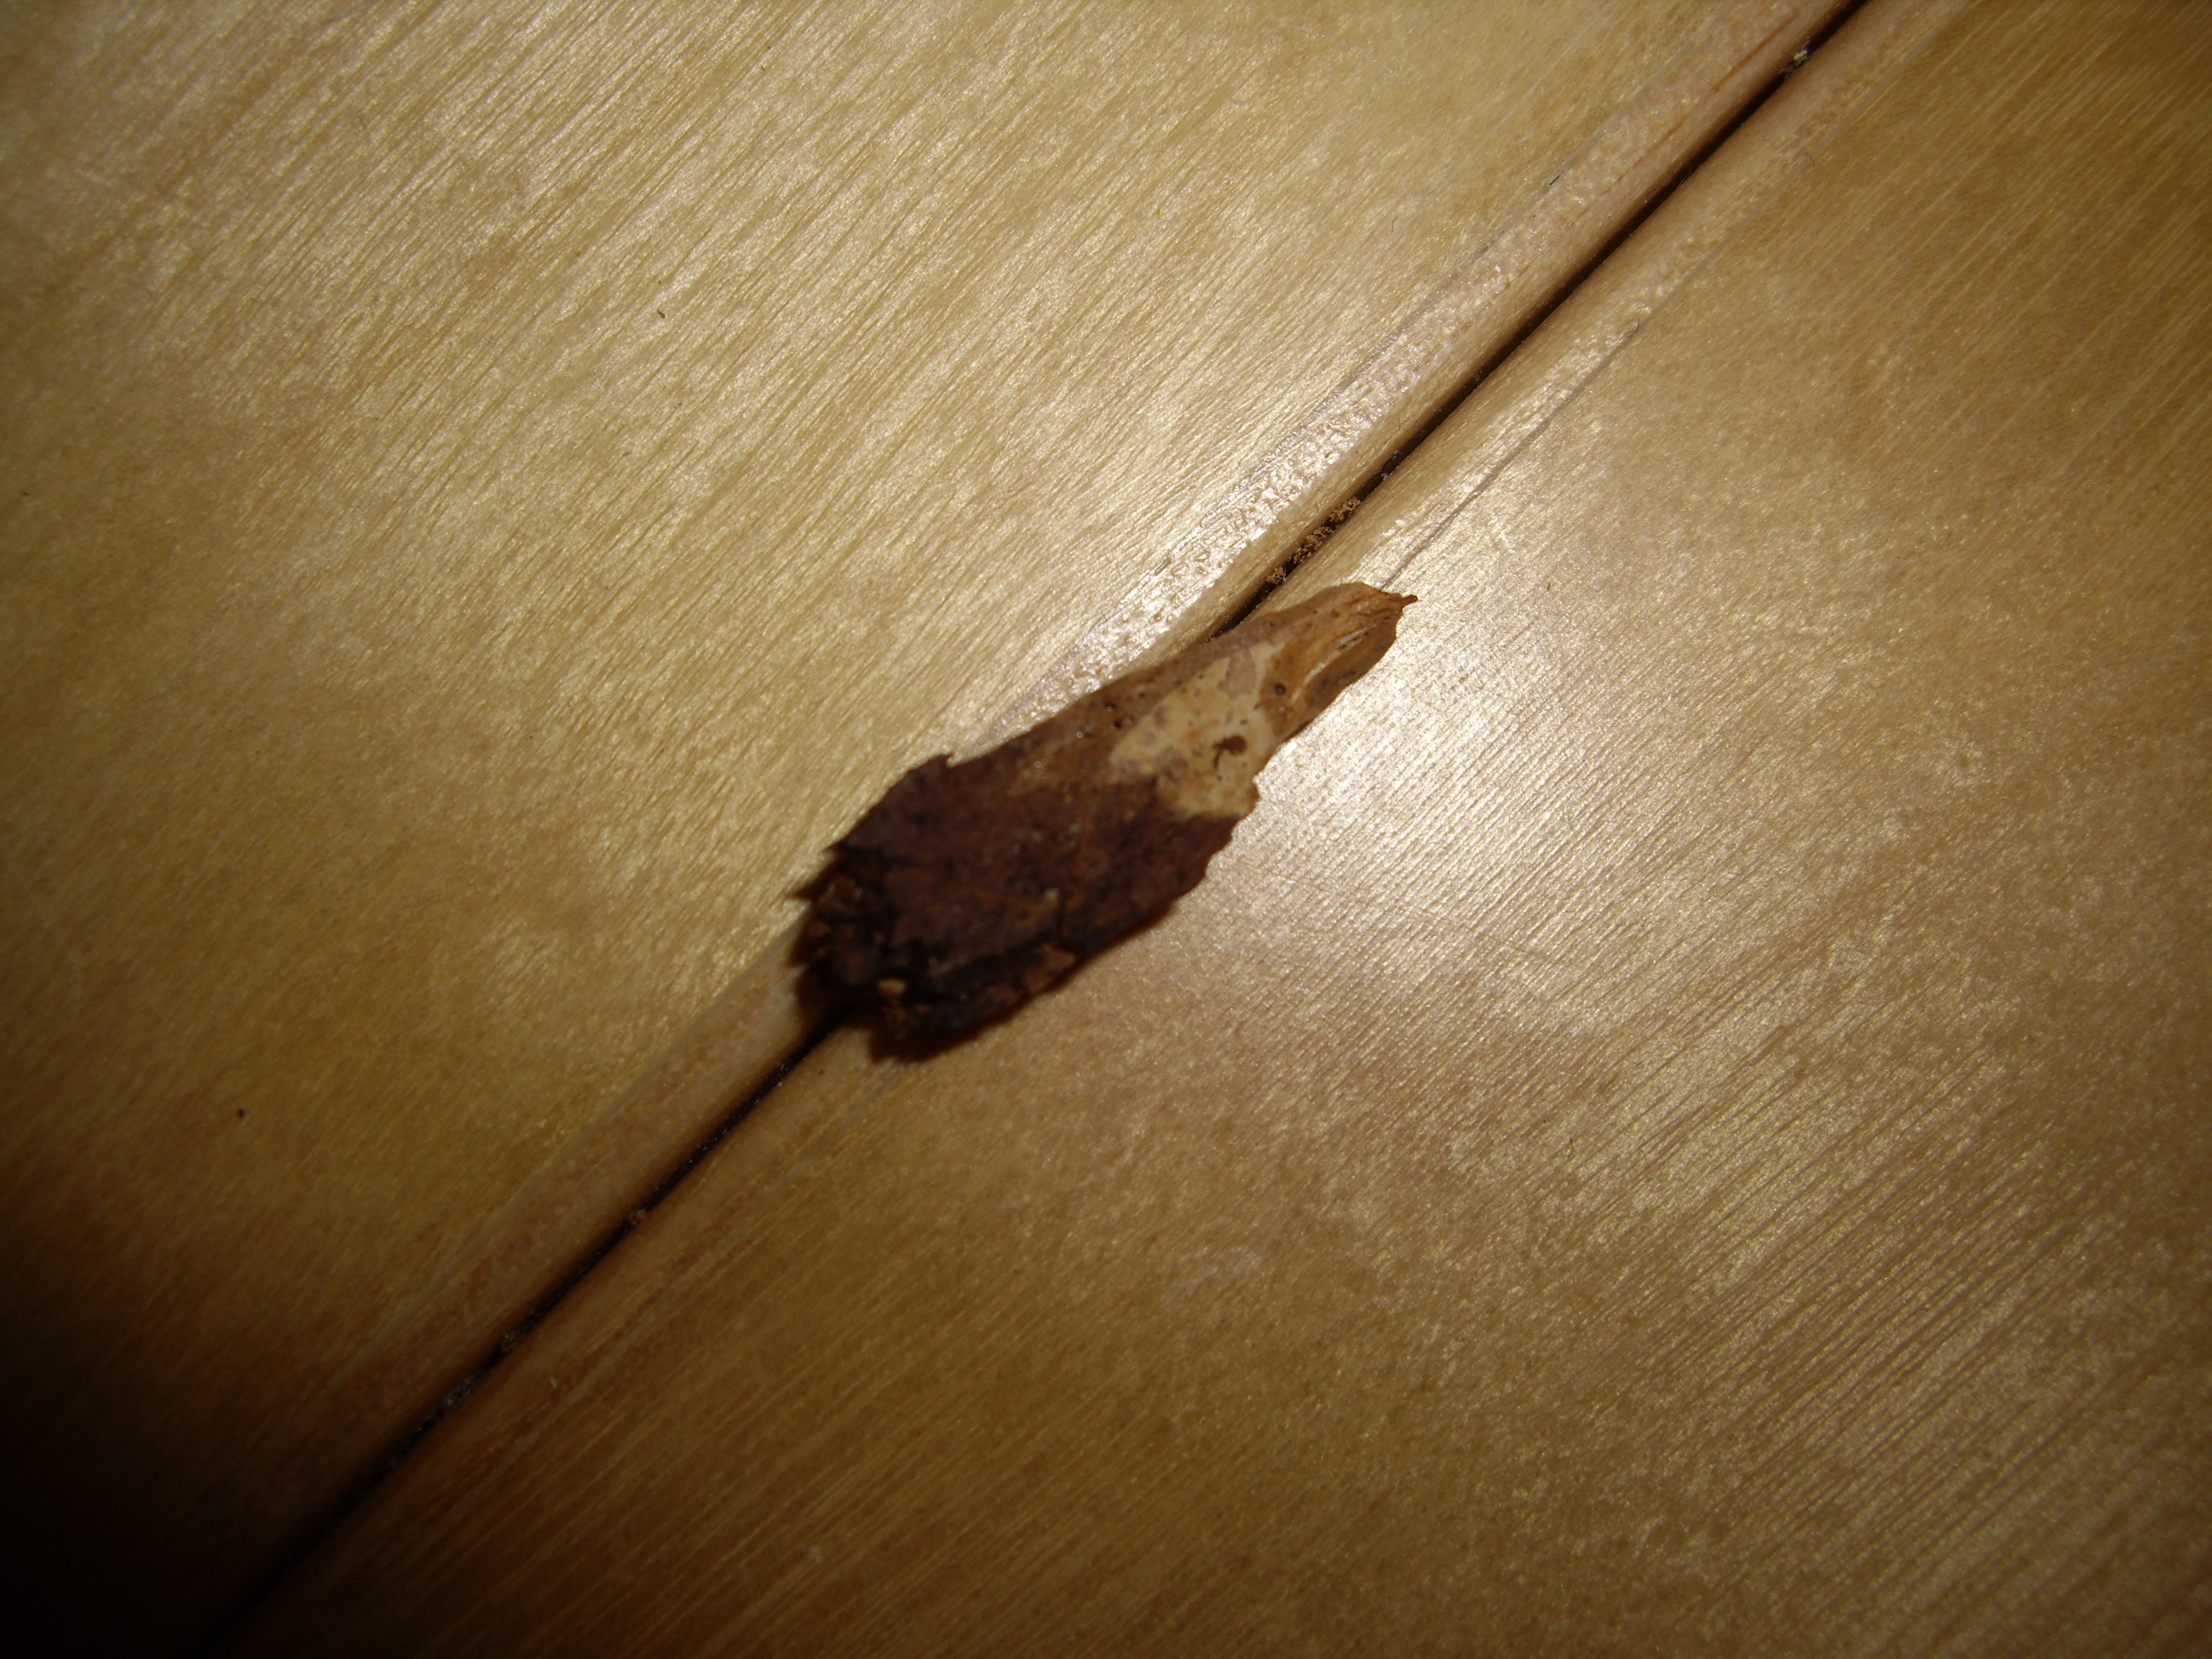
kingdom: Fungi
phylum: Basidiomycota
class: Agaricomycetes
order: Cantharellales
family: Clavulinaceae
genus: Clavulicium
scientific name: Clavulicium macounii
